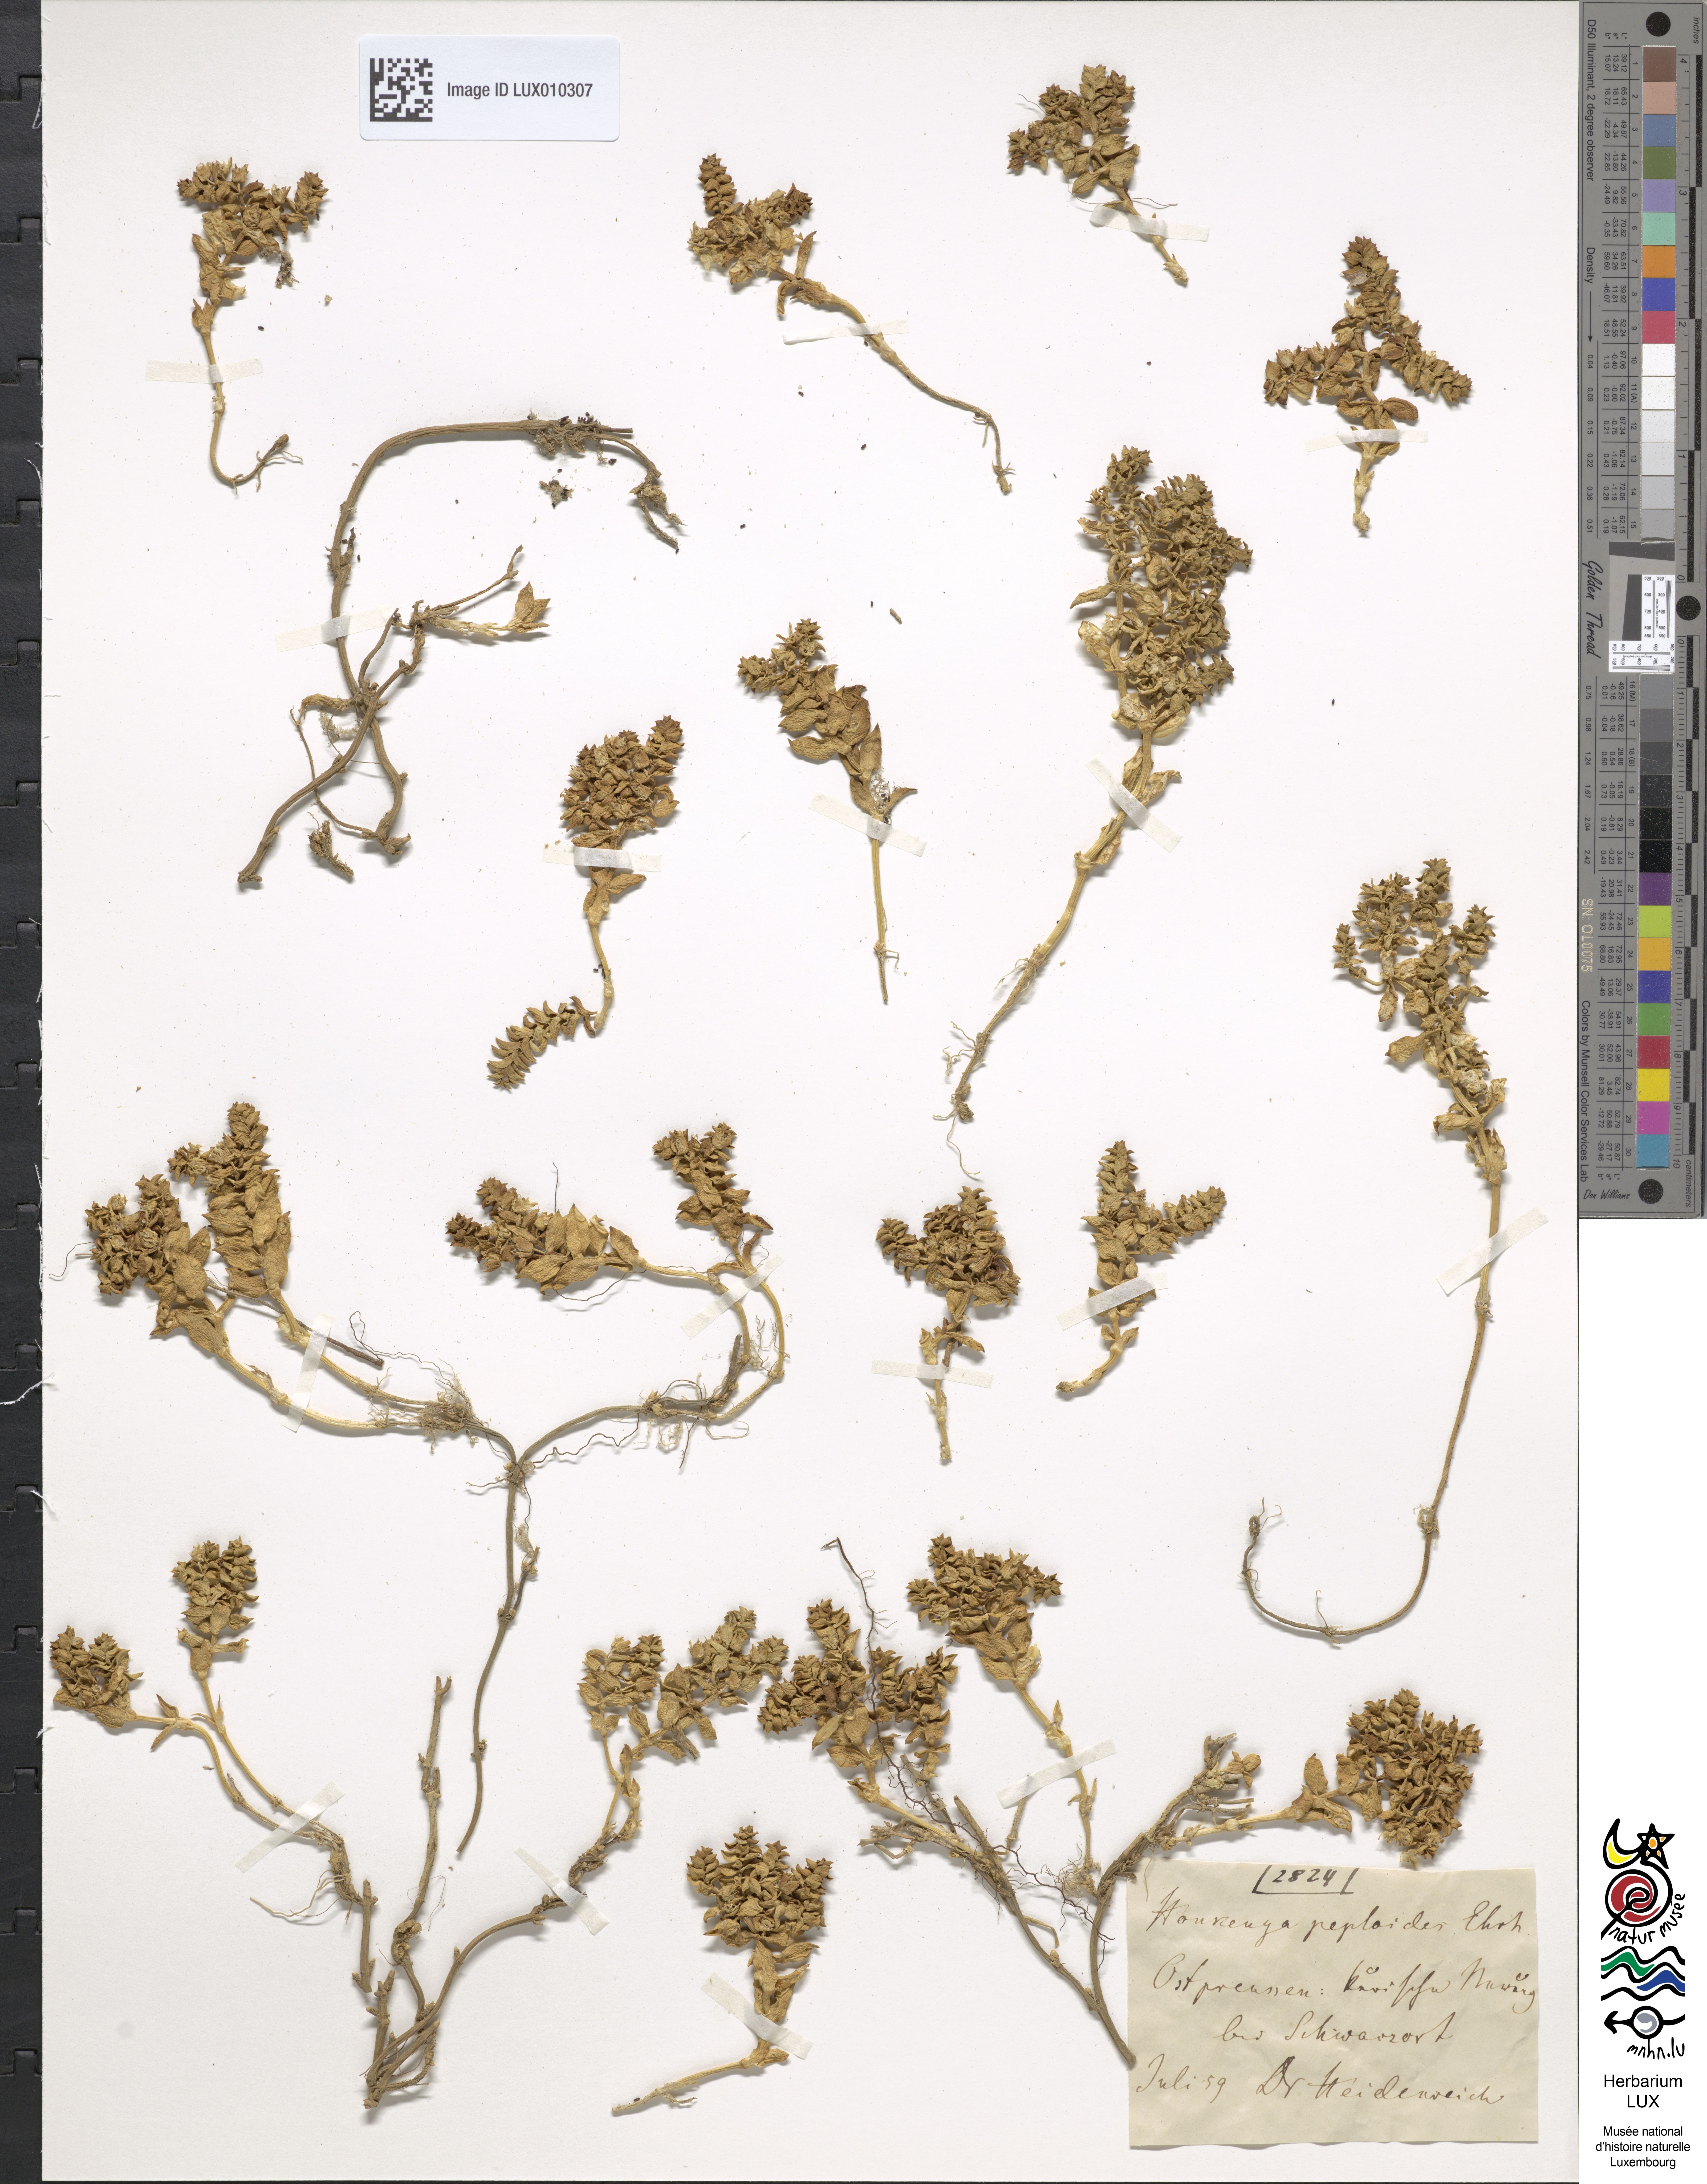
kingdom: Plantae
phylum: Tracheophyta
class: Magnoliopsida
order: Caryophyllales
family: Caryophyllaceae
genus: Honckenya
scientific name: Honckenya peploides
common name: Sea sandwort
